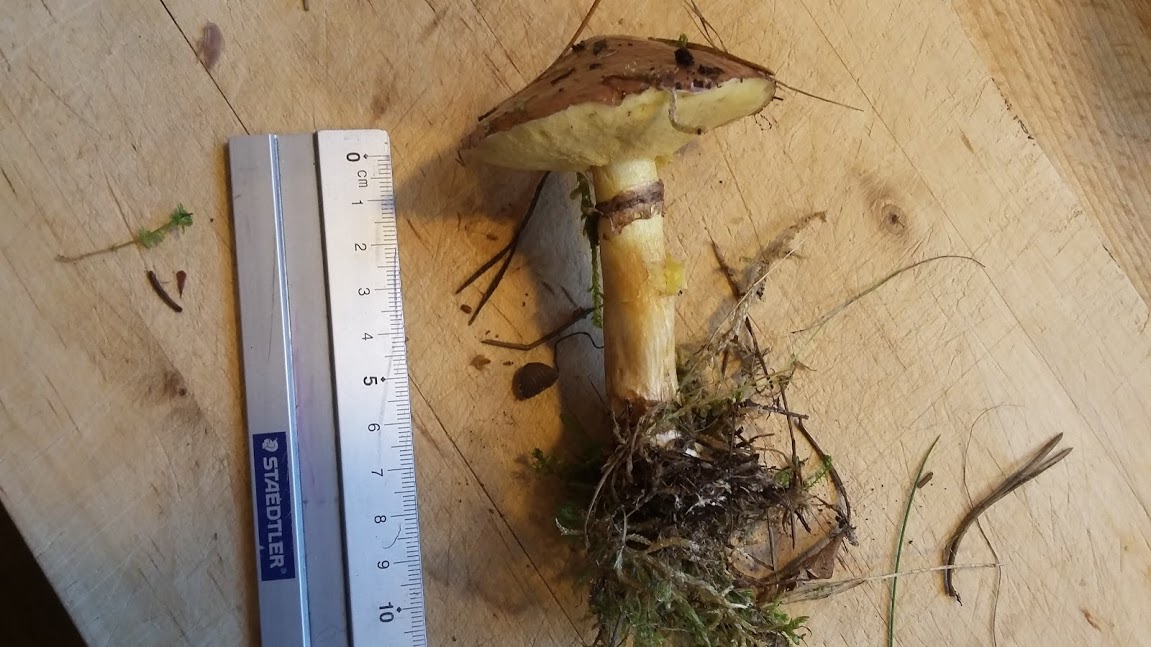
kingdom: Fungi
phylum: Basidiomycota
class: Agaricomycetes
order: Boletales
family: Suillaceae
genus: Suillus
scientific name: Suillus luteus
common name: brungul slimrørhat
